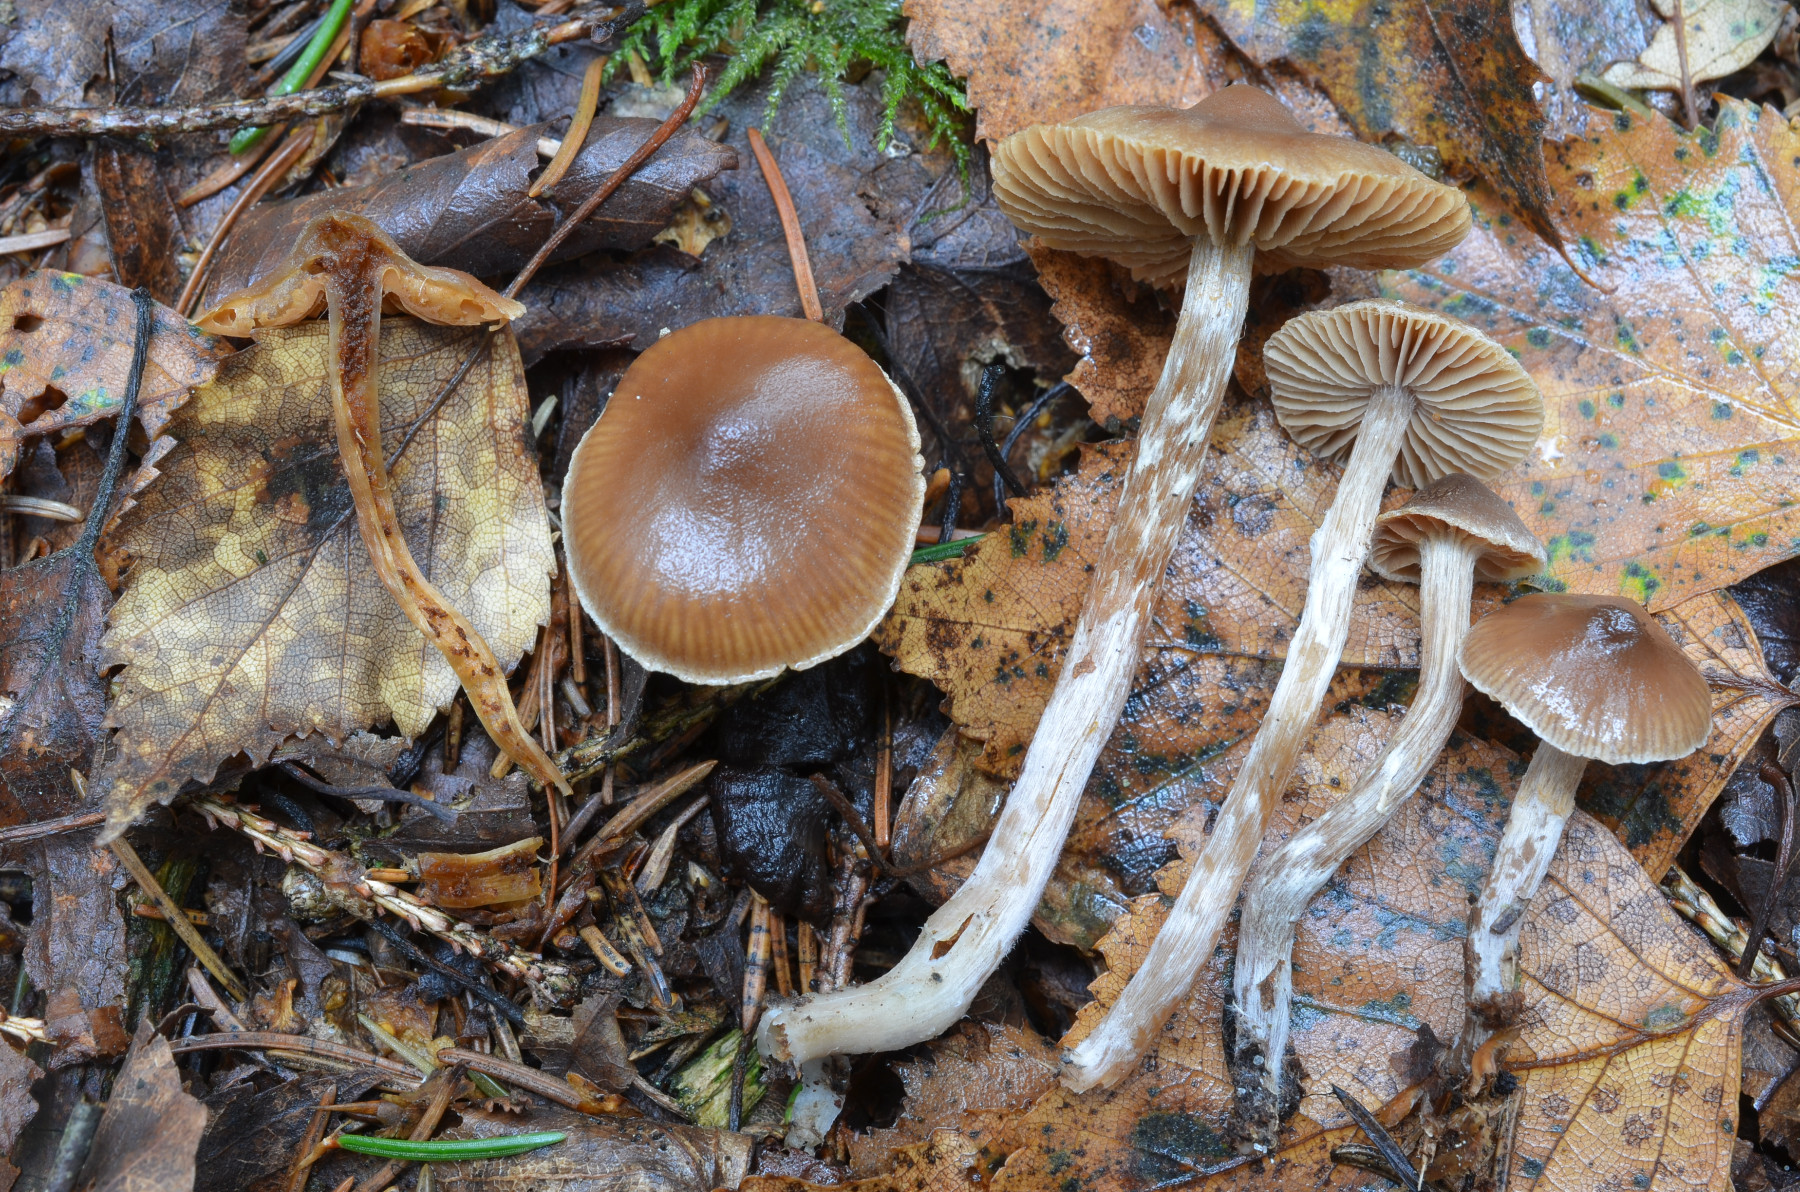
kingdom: Fungi
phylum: Basidiomycota
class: Agaricomycetes
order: Agaricales
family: Cortinariaceae
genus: Cortinarius
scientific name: Cortinarius fagetorum
